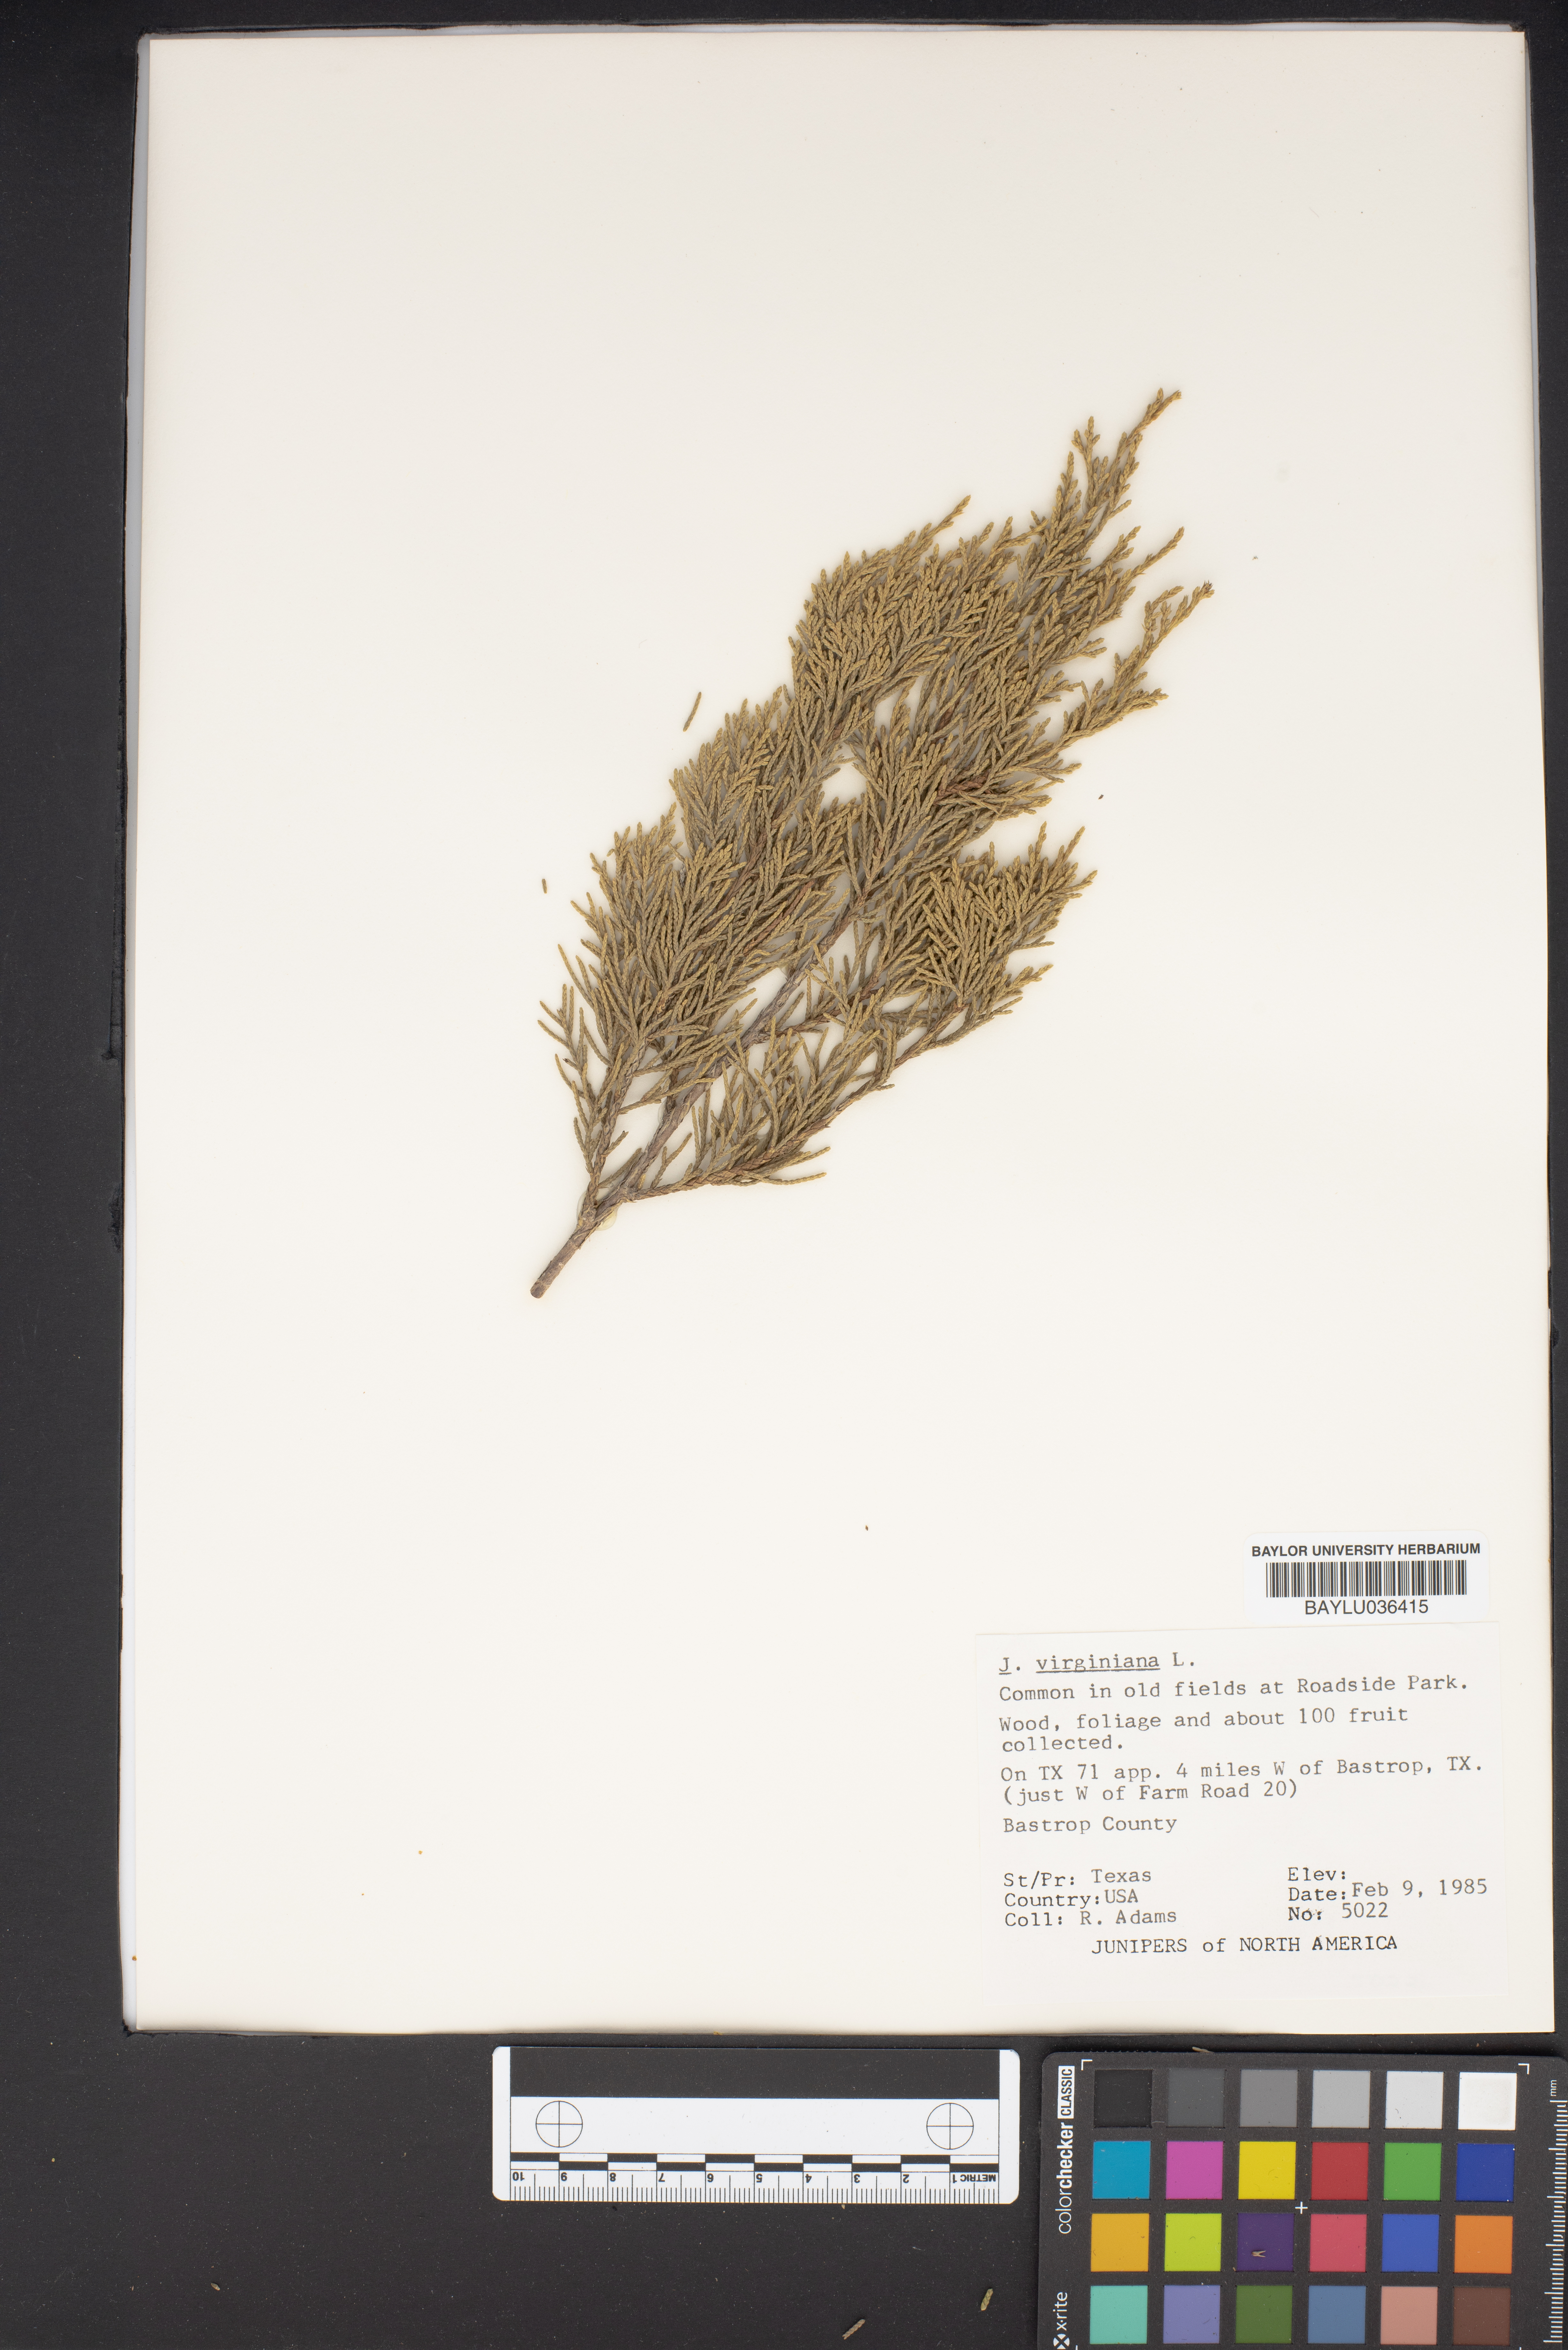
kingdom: Plantae
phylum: Tracheophyta
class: Pinopsida
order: Pinales
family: Cupressaceae
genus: Juniperus
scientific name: Juniperus virginiana
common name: Red juniper
